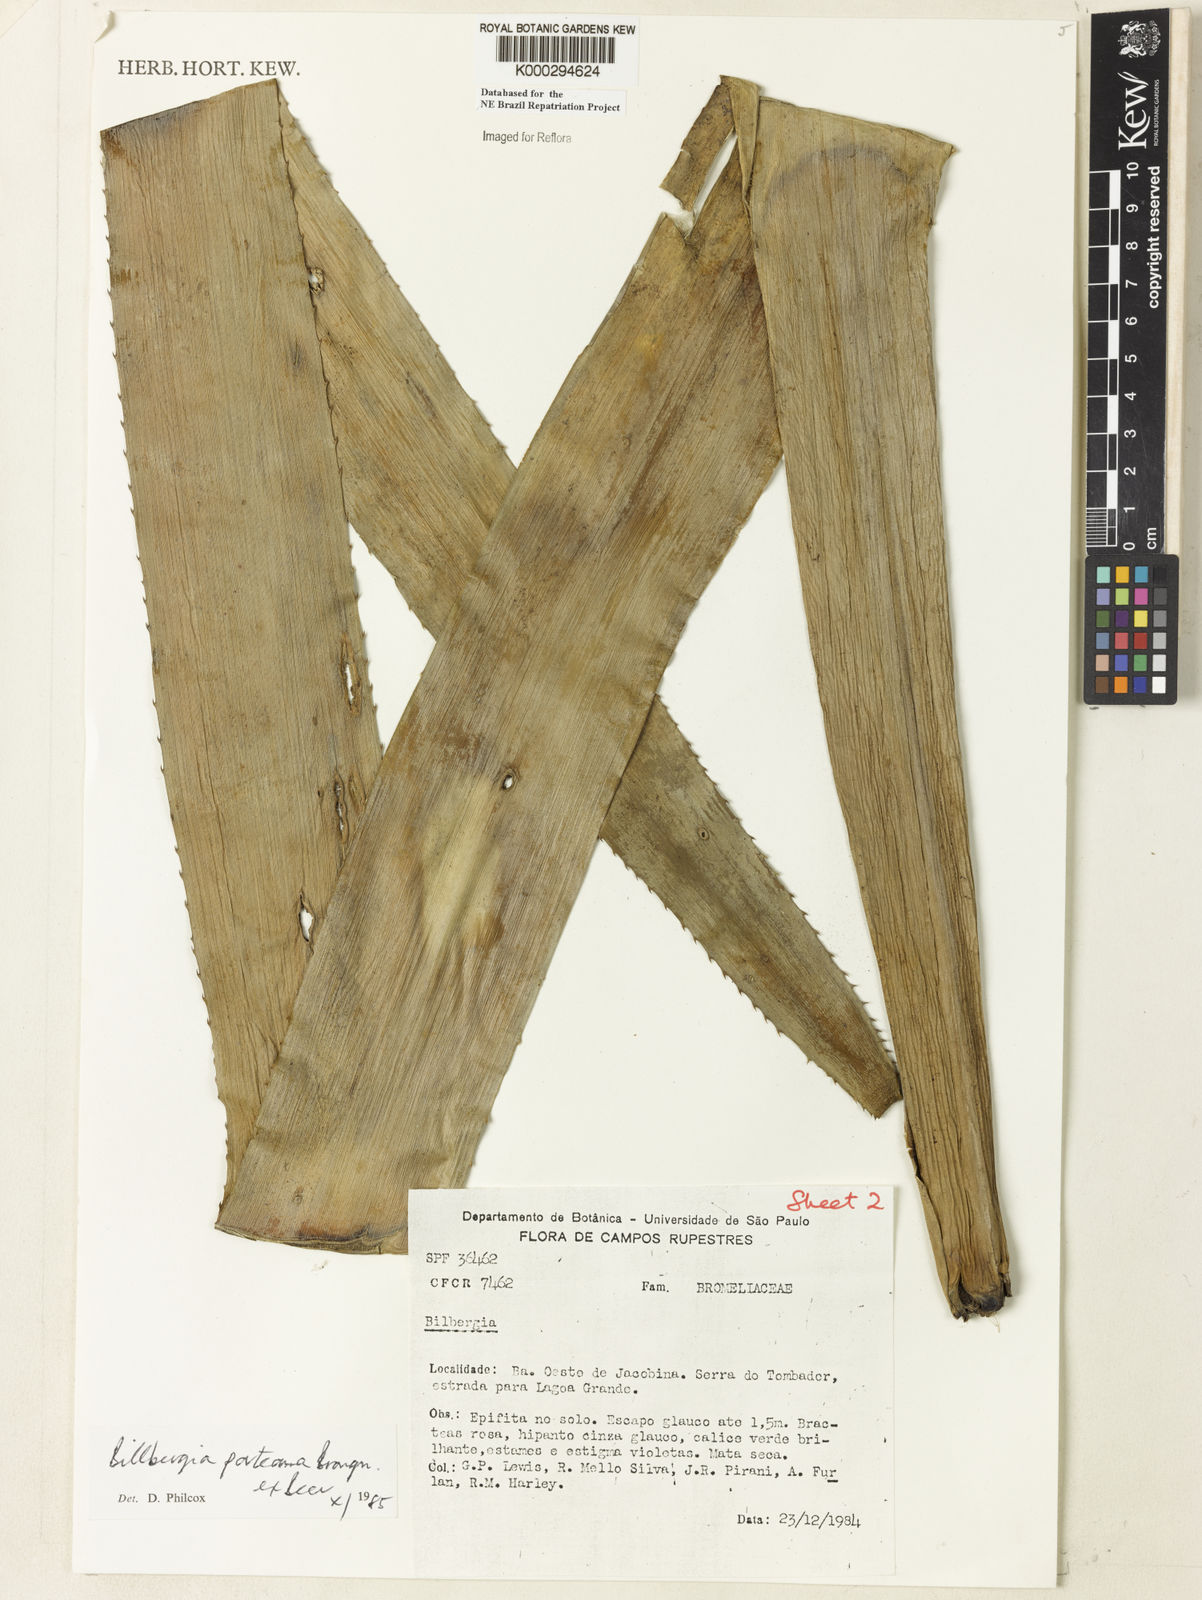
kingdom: Plantae
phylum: Tracheophyta
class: Liliopsida
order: Poales
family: Bromeliaceae
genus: Billbergia
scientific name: Billbergia porteana
